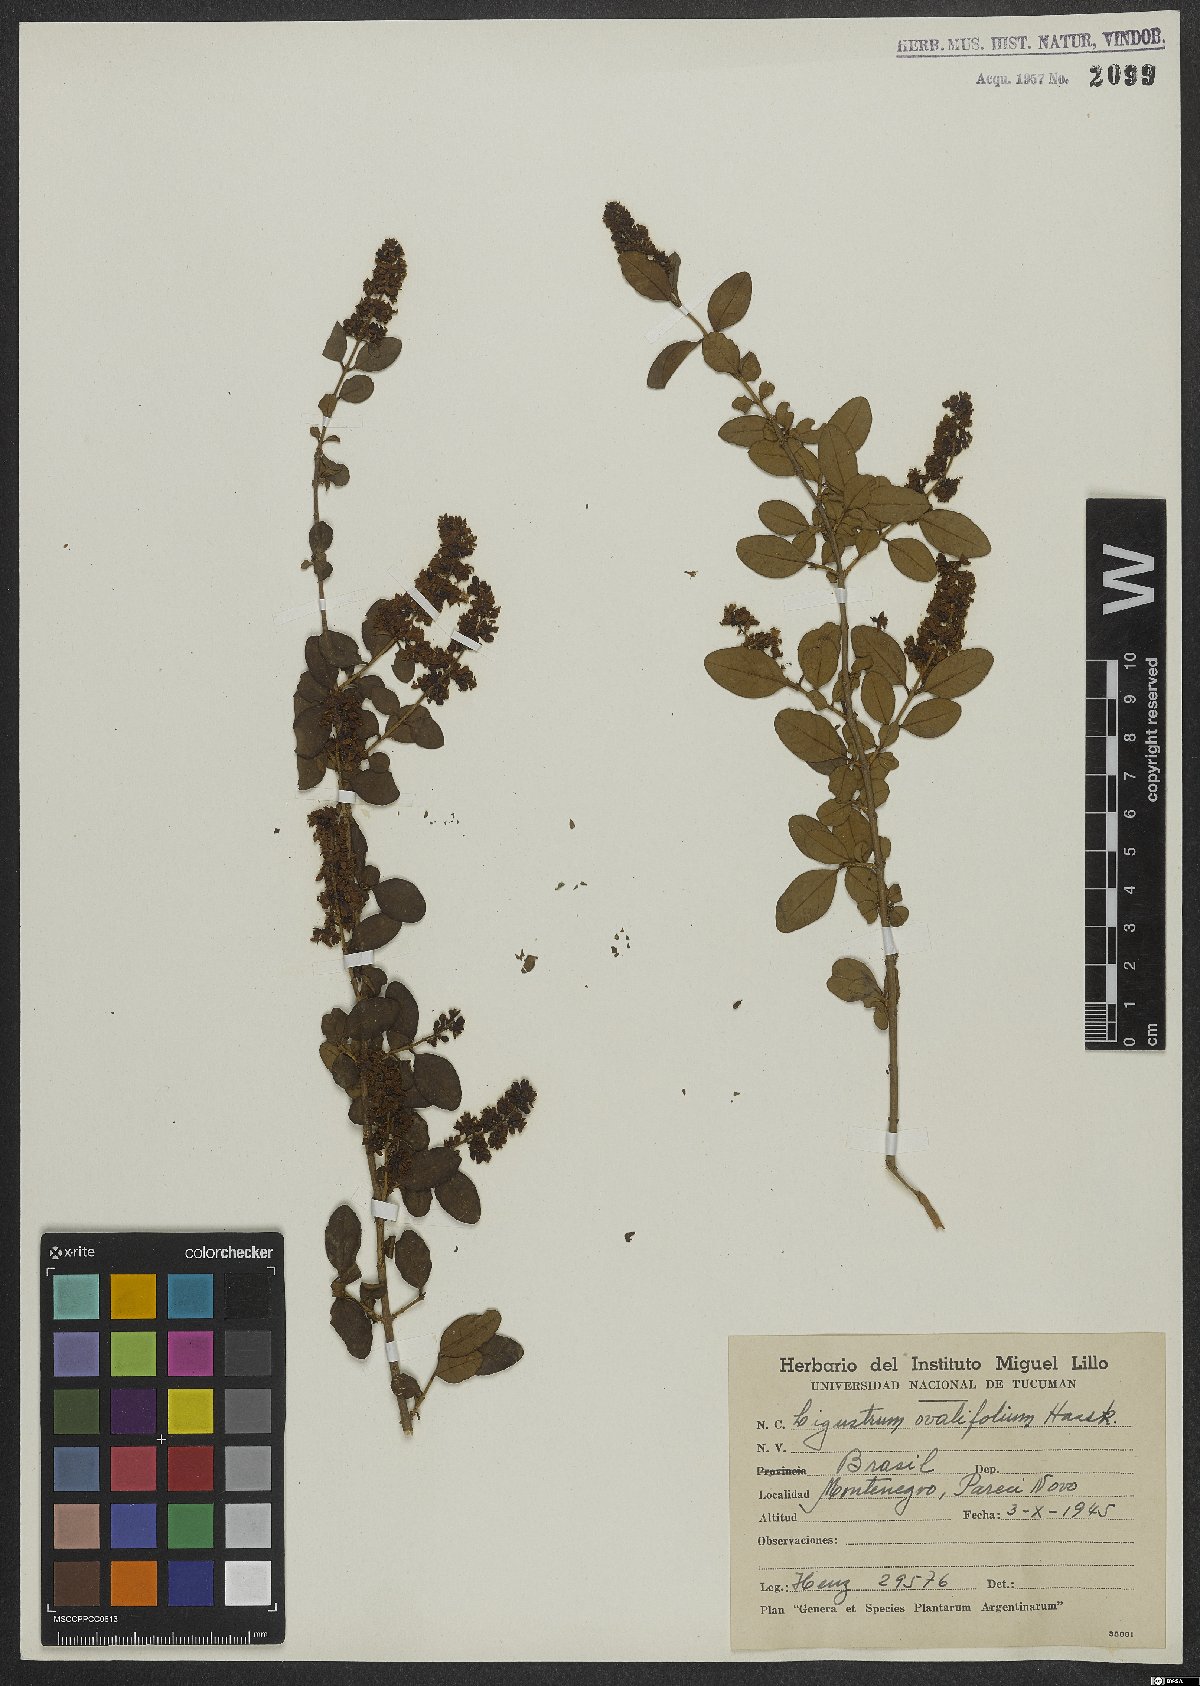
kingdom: Plantae
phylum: Tracheophyta
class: Magnoliopsida
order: Lamiales
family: Oleaceae
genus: Ligustrum
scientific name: Ligustrum ovalifolium
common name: California privet
